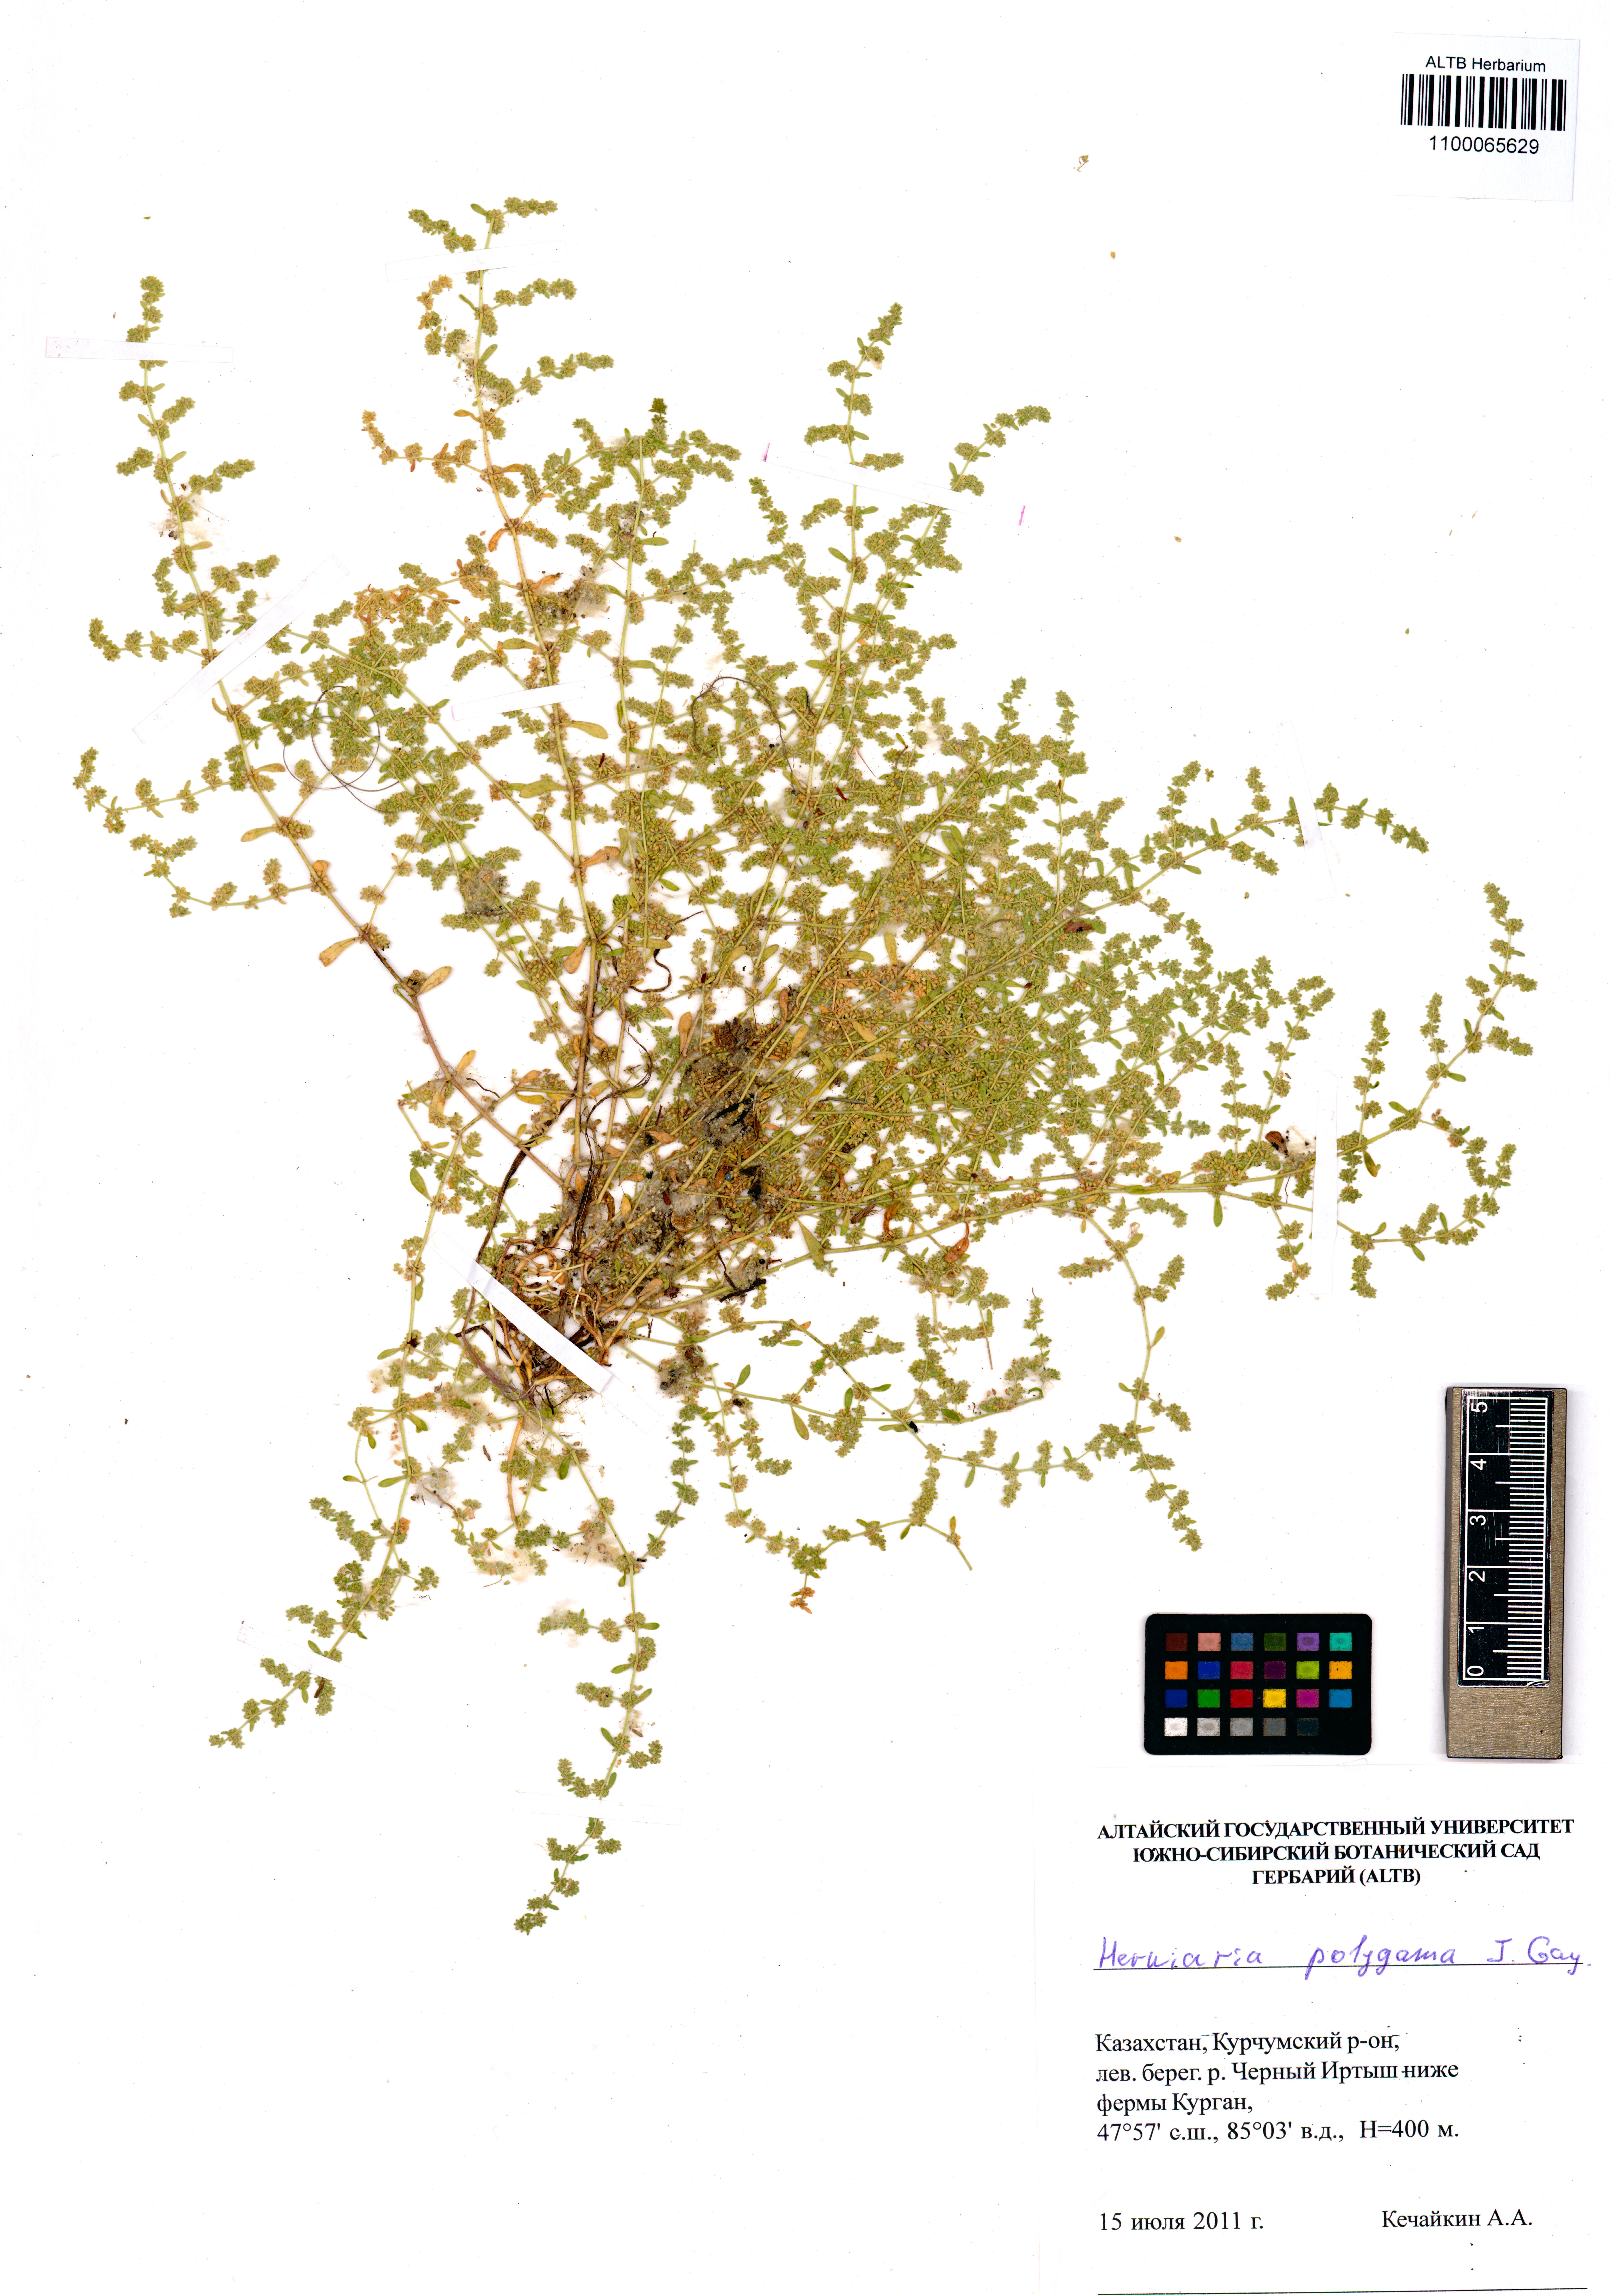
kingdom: Plantae
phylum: Tracheophyta
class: Magnoliopsida
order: Caryophyllales
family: Caryophyllaceae
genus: Herniaria
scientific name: Herniaria polygama
